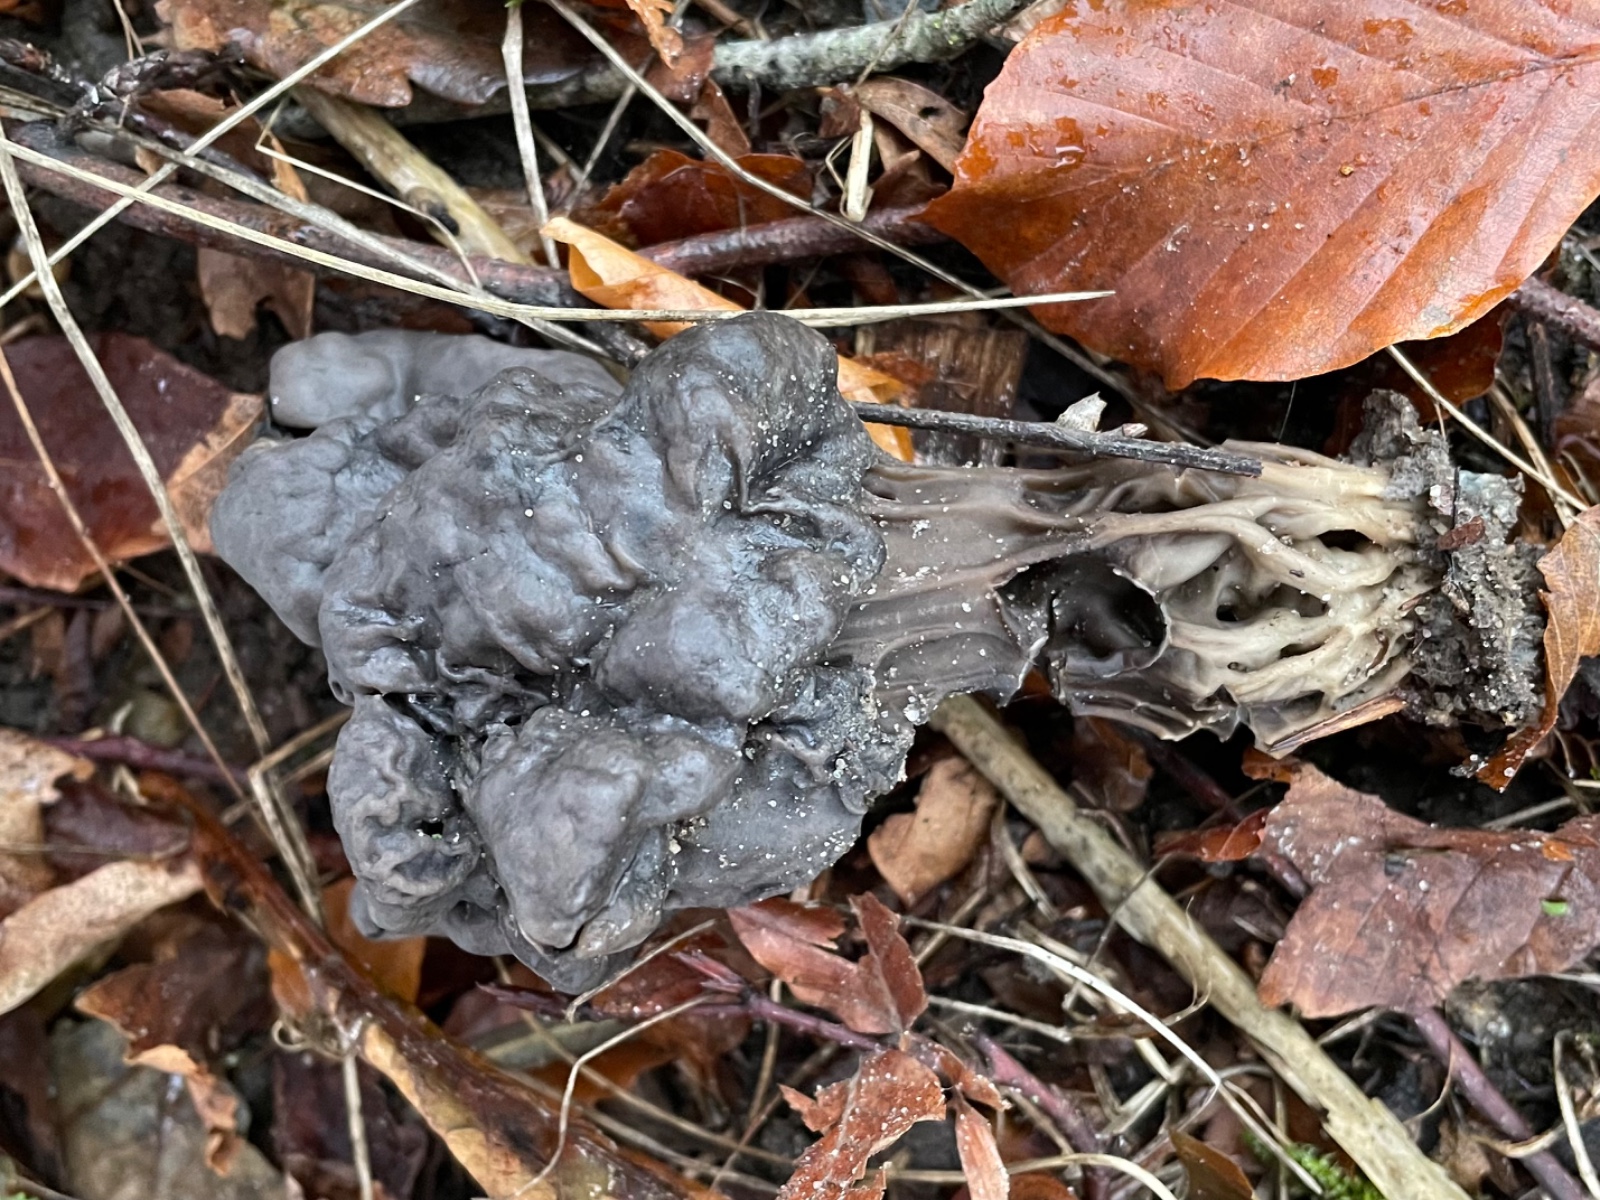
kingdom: Fungi
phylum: Ascomycota
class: Pezizomycetes
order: Pezizales
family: Helvellaceae
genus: Helvella
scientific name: Helvella lacunosa
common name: grubet foldhat
